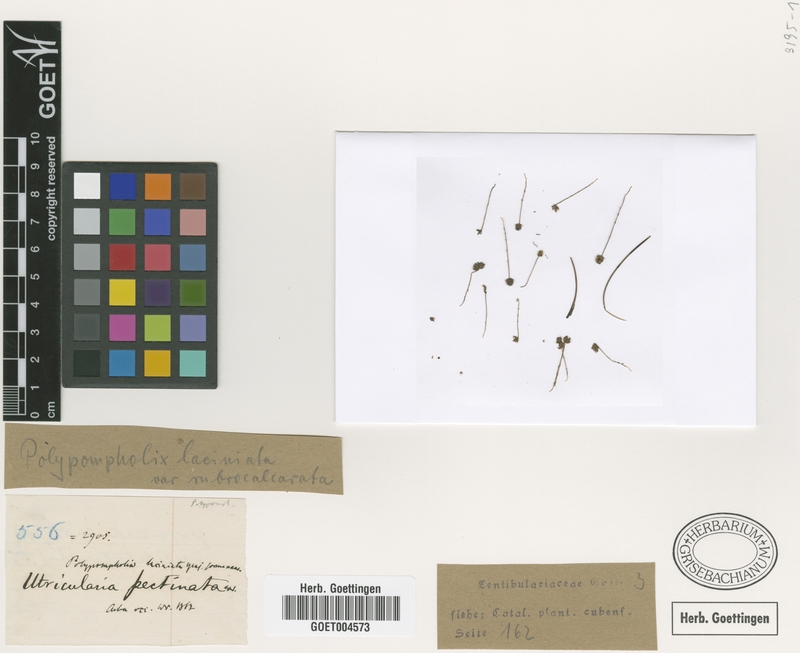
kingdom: Plantae
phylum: Tracheophyta
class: Magnoliopsida
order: Lamiales
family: Lentibulariaceae
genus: Utricularia
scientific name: Utricularia laciniata
